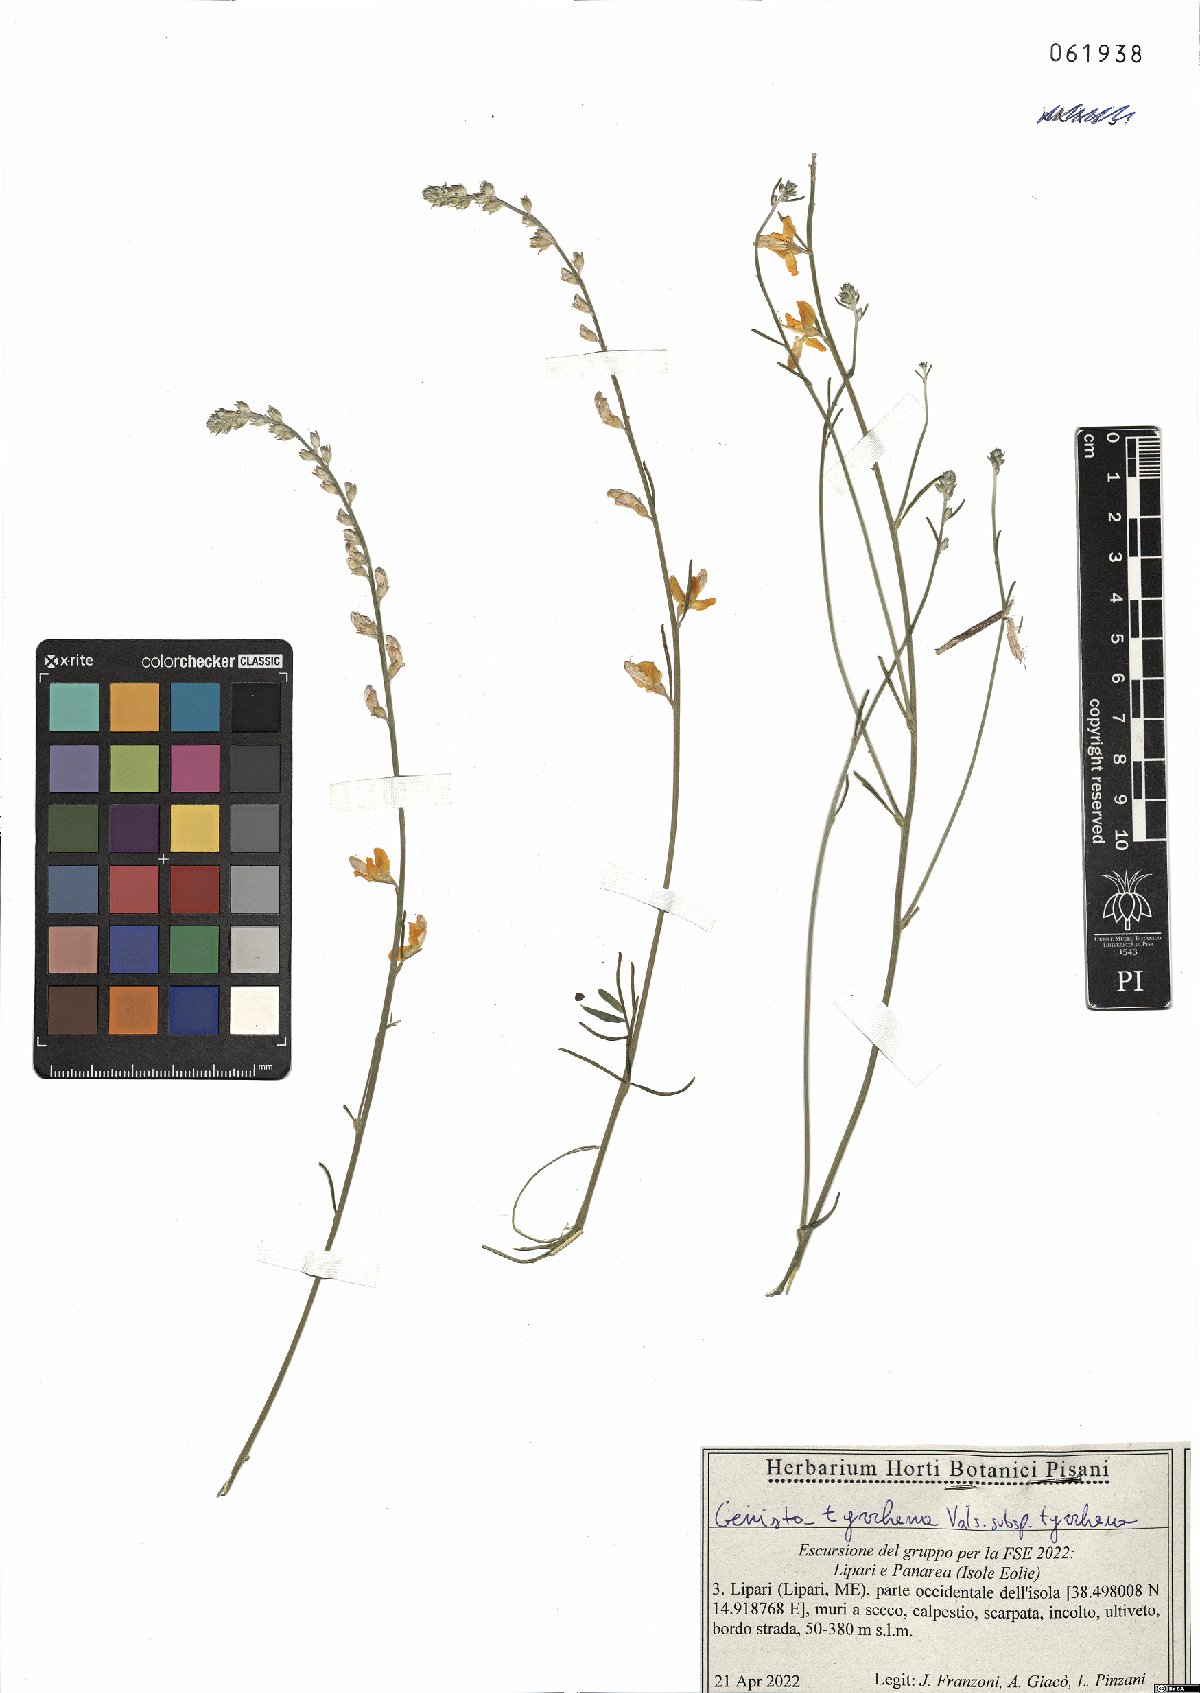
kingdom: Plantae
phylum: Tracheophyta
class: Magnoliopsida
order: Fabales
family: Fabaceae
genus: Genista
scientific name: Genista tyrrhena
